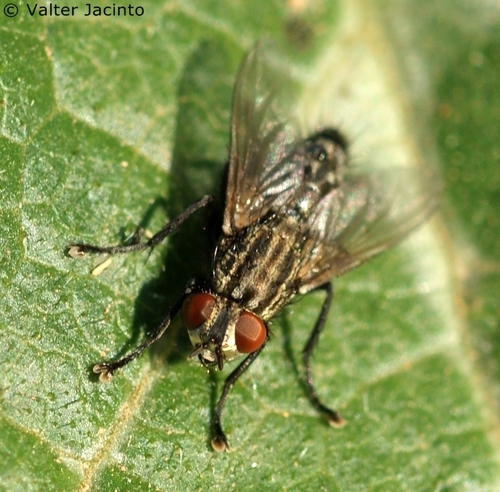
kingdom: Animalia
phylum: Arthropoda
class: Insecta
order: Diptera
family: Sarcophagidae
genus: Sarcophaga
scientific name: Sarcophaga melanura
